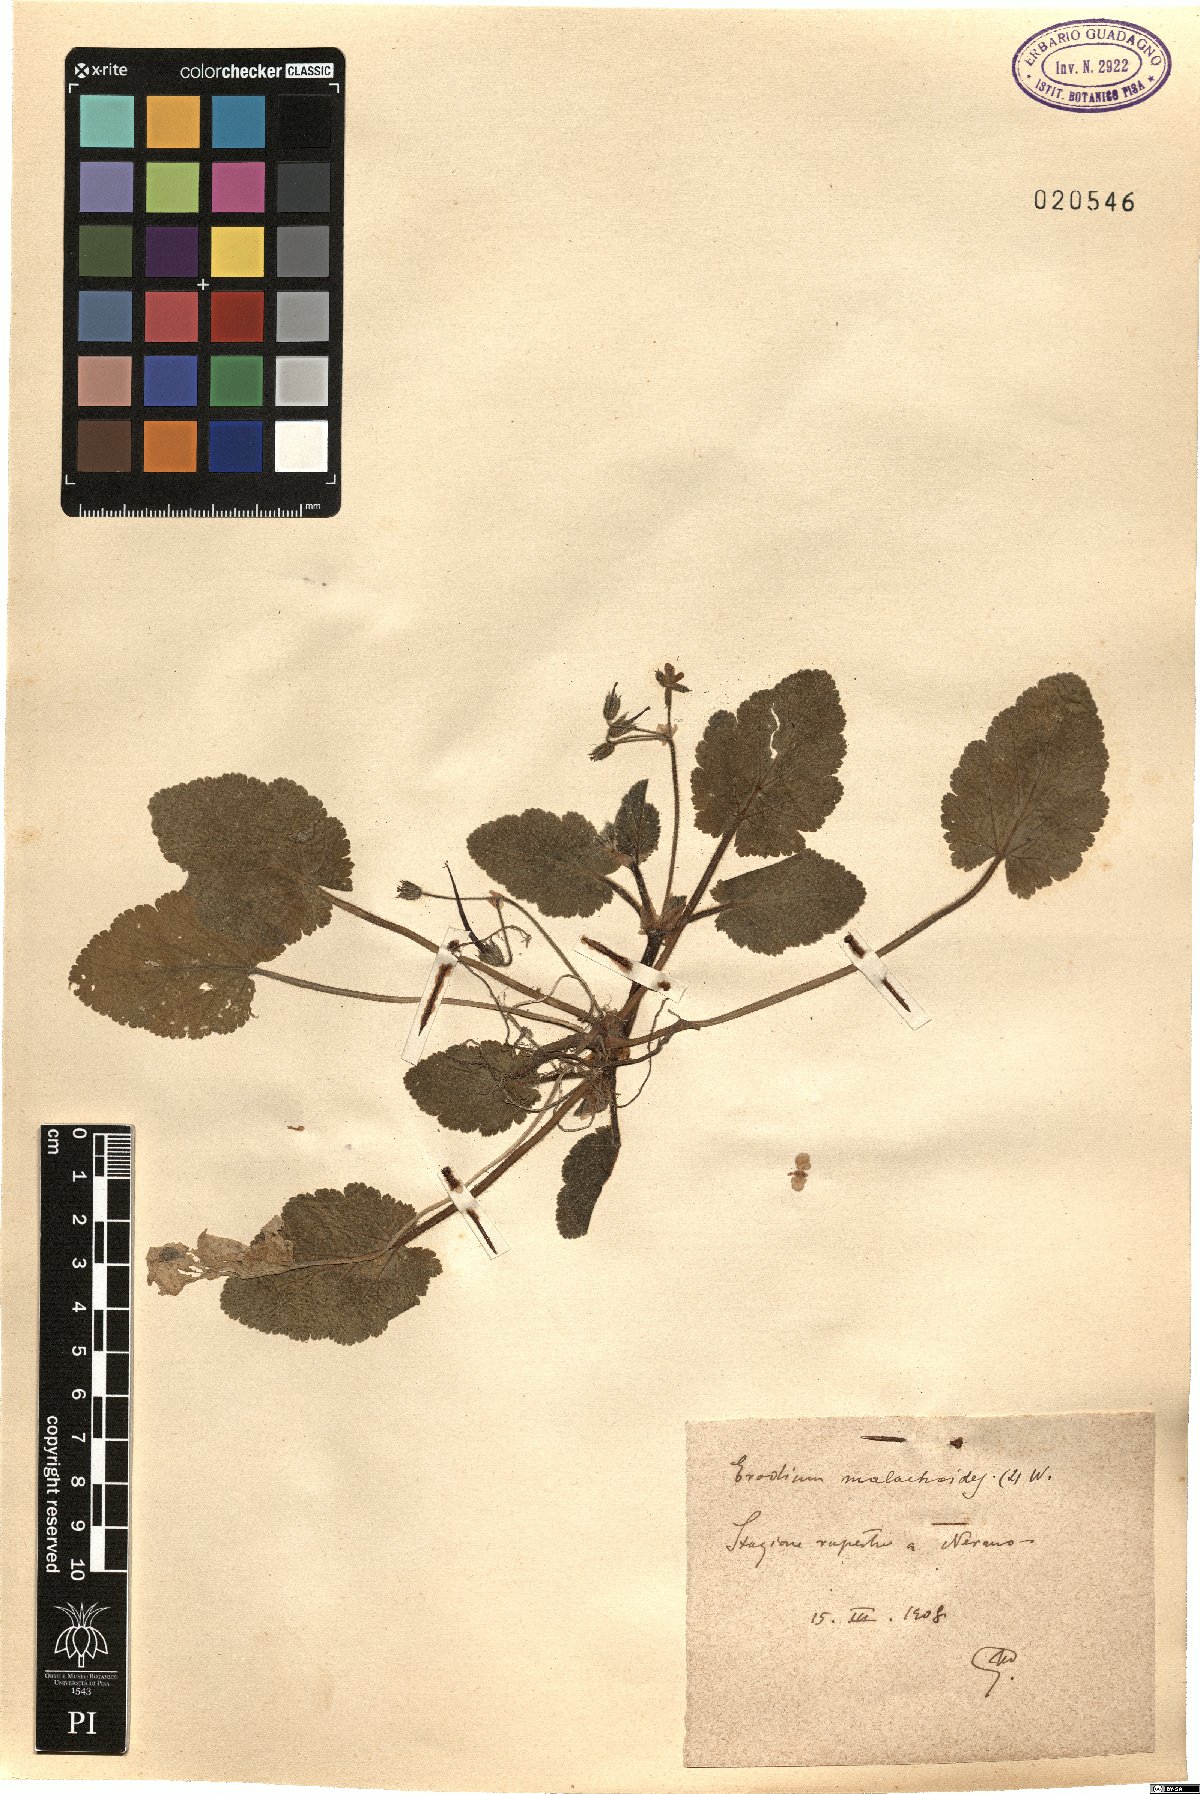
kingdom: Plantae
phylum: Tracheophyta
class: Magnoliopsida
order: Geraniales
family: Geraniaceae
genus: Erodium
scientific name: Erodium malacoides
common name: Soft stork's-bill
